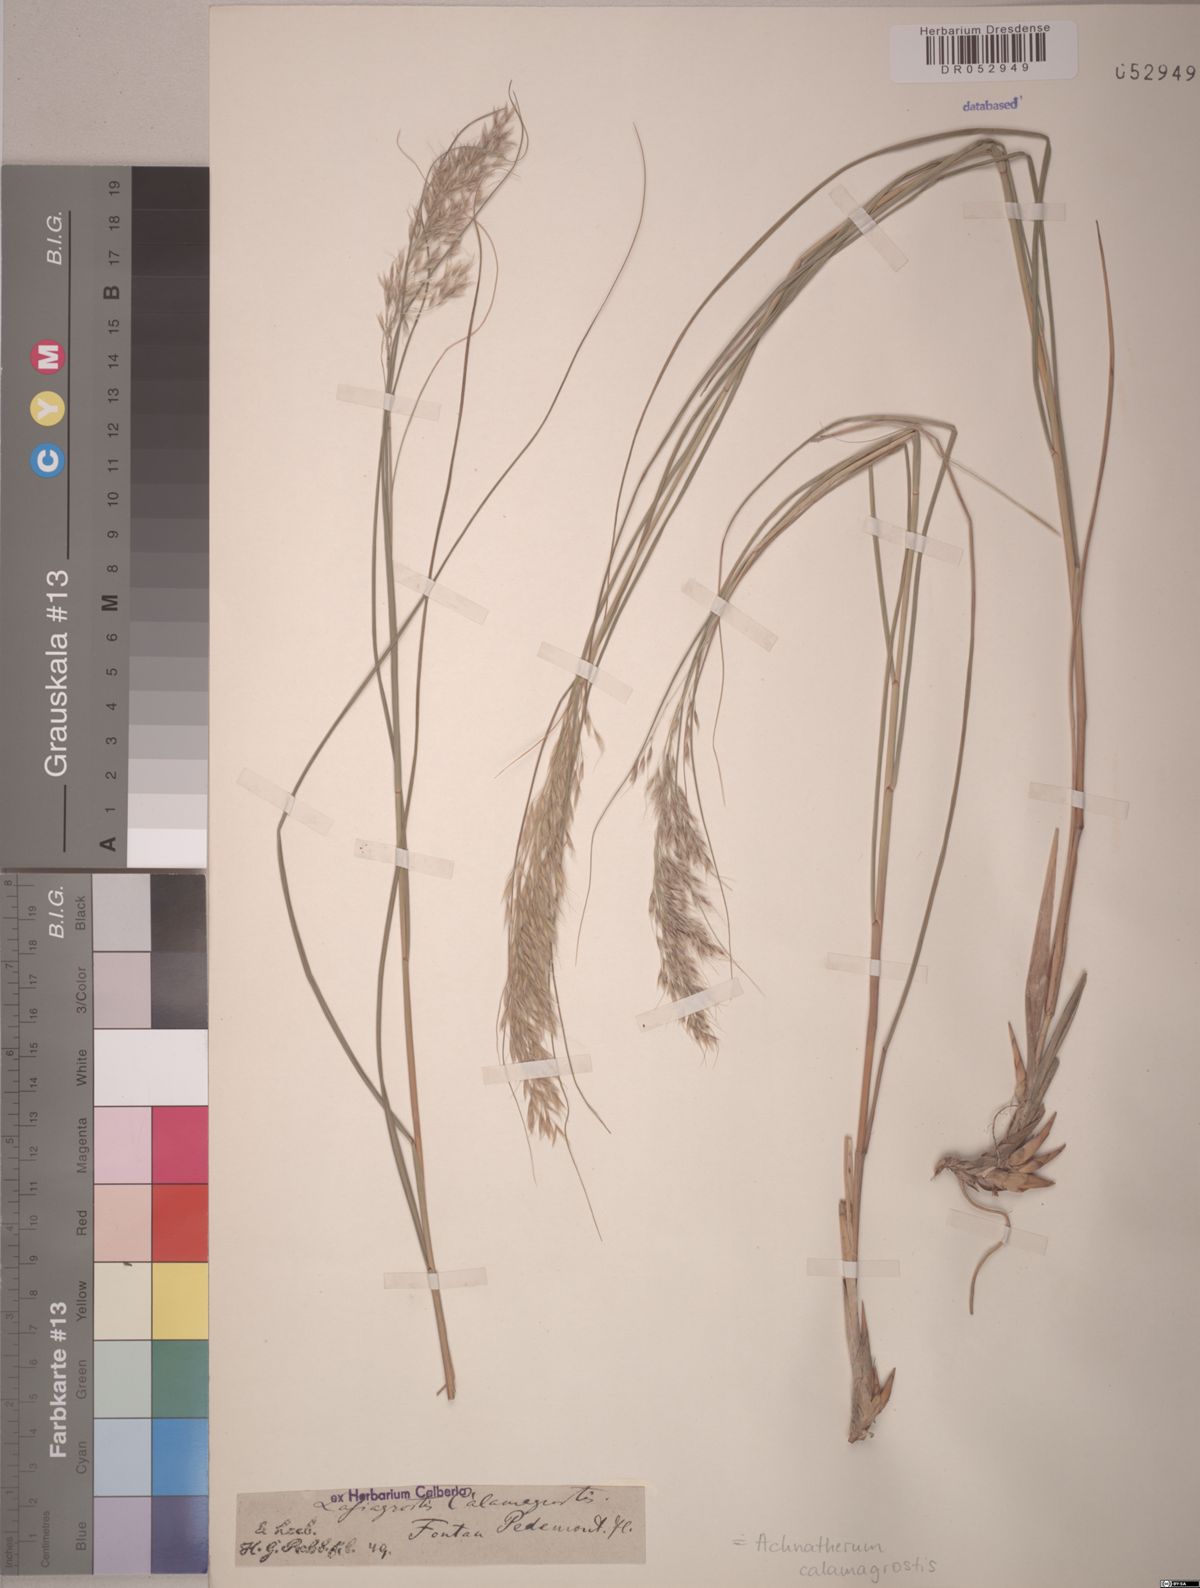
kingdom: Plantae
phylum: Tracheophyta
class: Liliopsida
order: Poales
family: Poaceae
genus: Achnatherum
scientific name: Achnatherum calamagrostis
